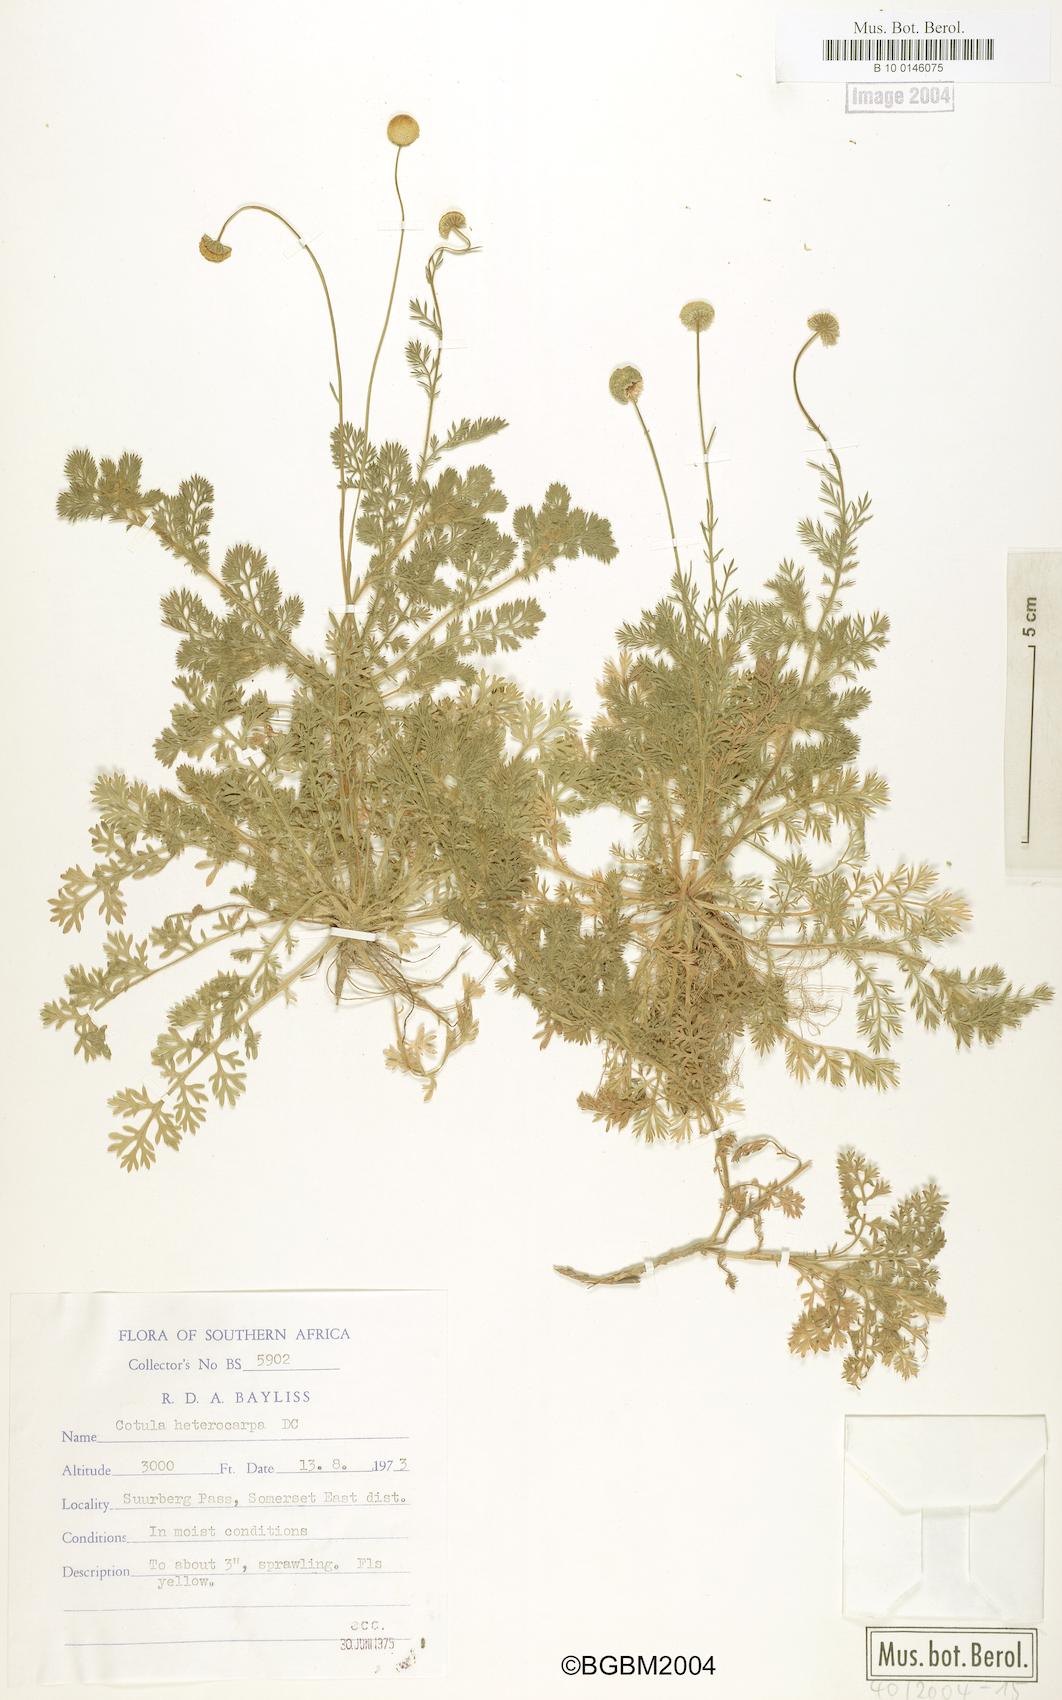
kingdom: Plantae
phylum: Tracheophyta
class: Magnoliopsida
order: Asterales
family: Asteraceae
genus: Cotula
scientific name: Cotula heterocarpa
